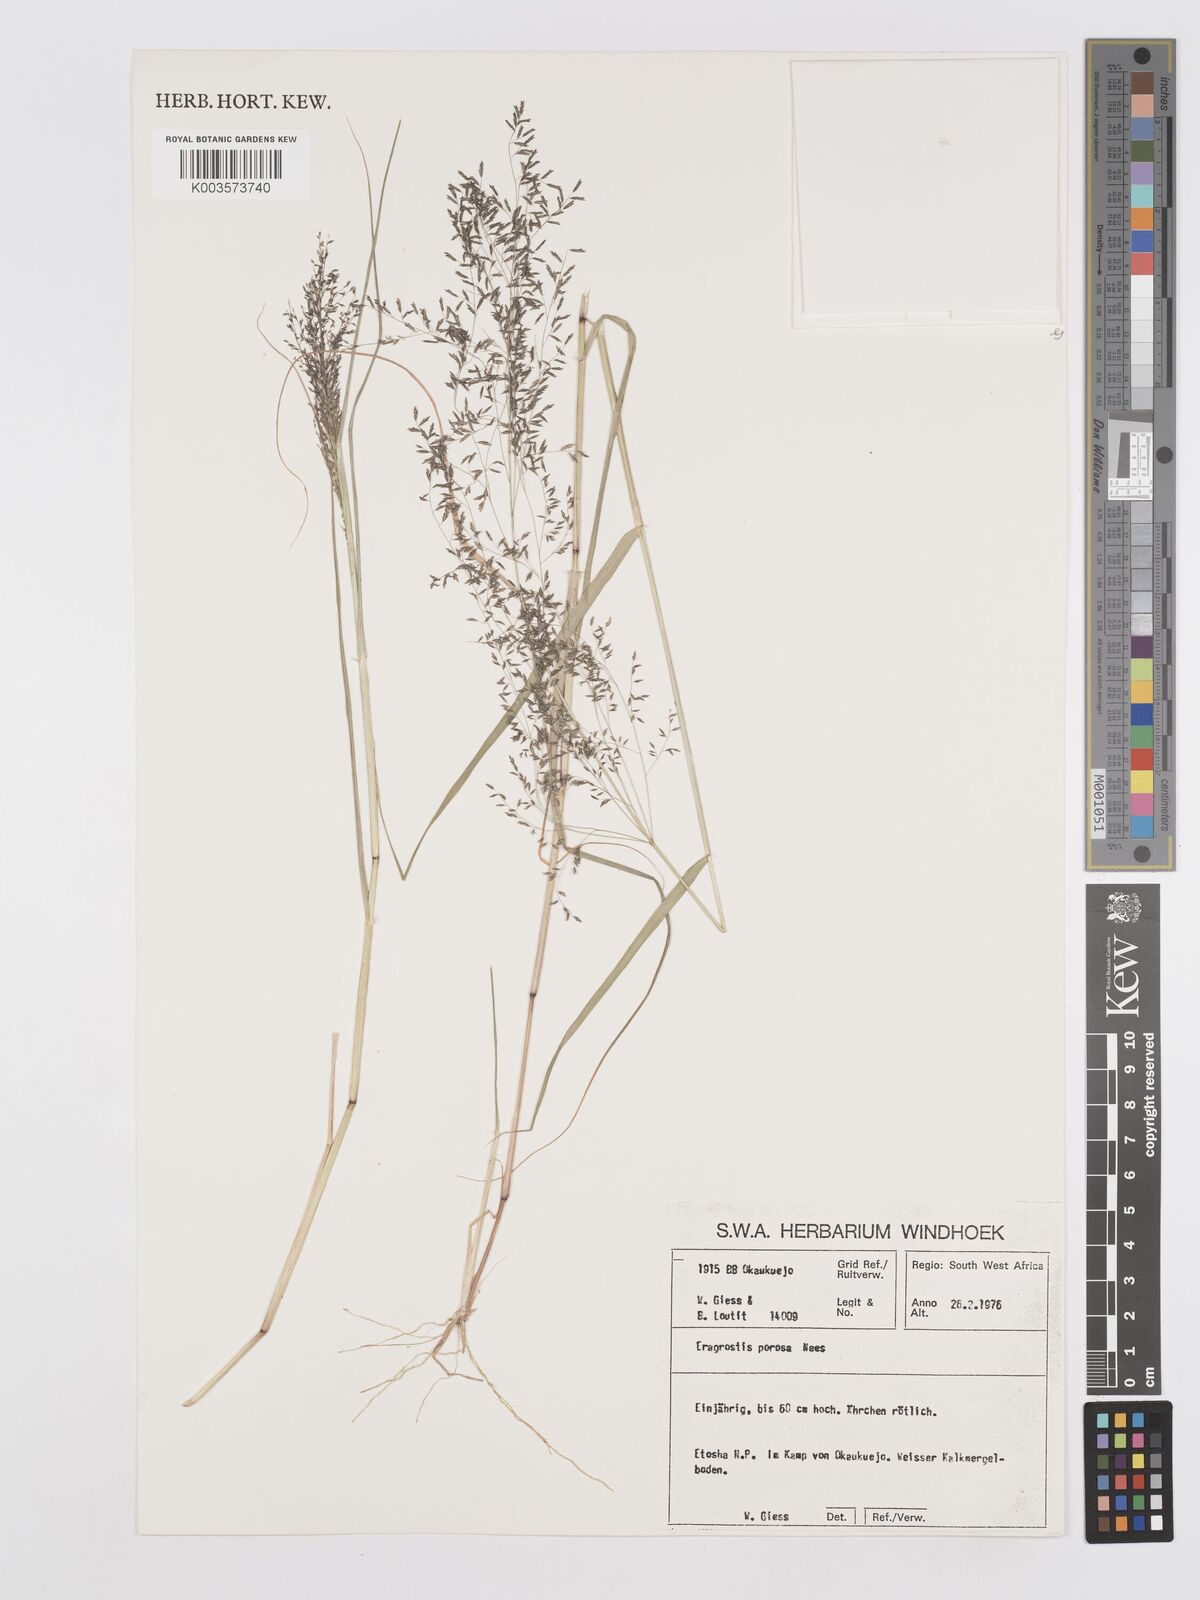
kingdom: Plantae
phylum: Tracheophyta
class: Liliopsida
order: Poales
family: Poaceae
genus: Eragrostis
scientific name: Eragrostis porosa
